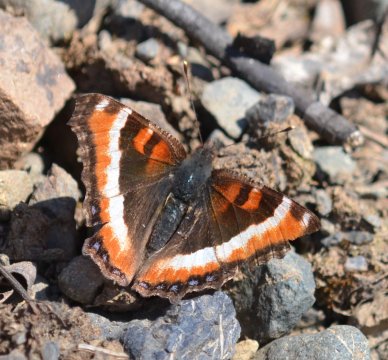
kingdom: Animalia
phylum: Arthropoda
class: Insecta
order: Lepidoptera
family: Nymphalidae
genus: Aglais
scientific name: Aglais milberti
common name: Milbert's Tortoiseshell
